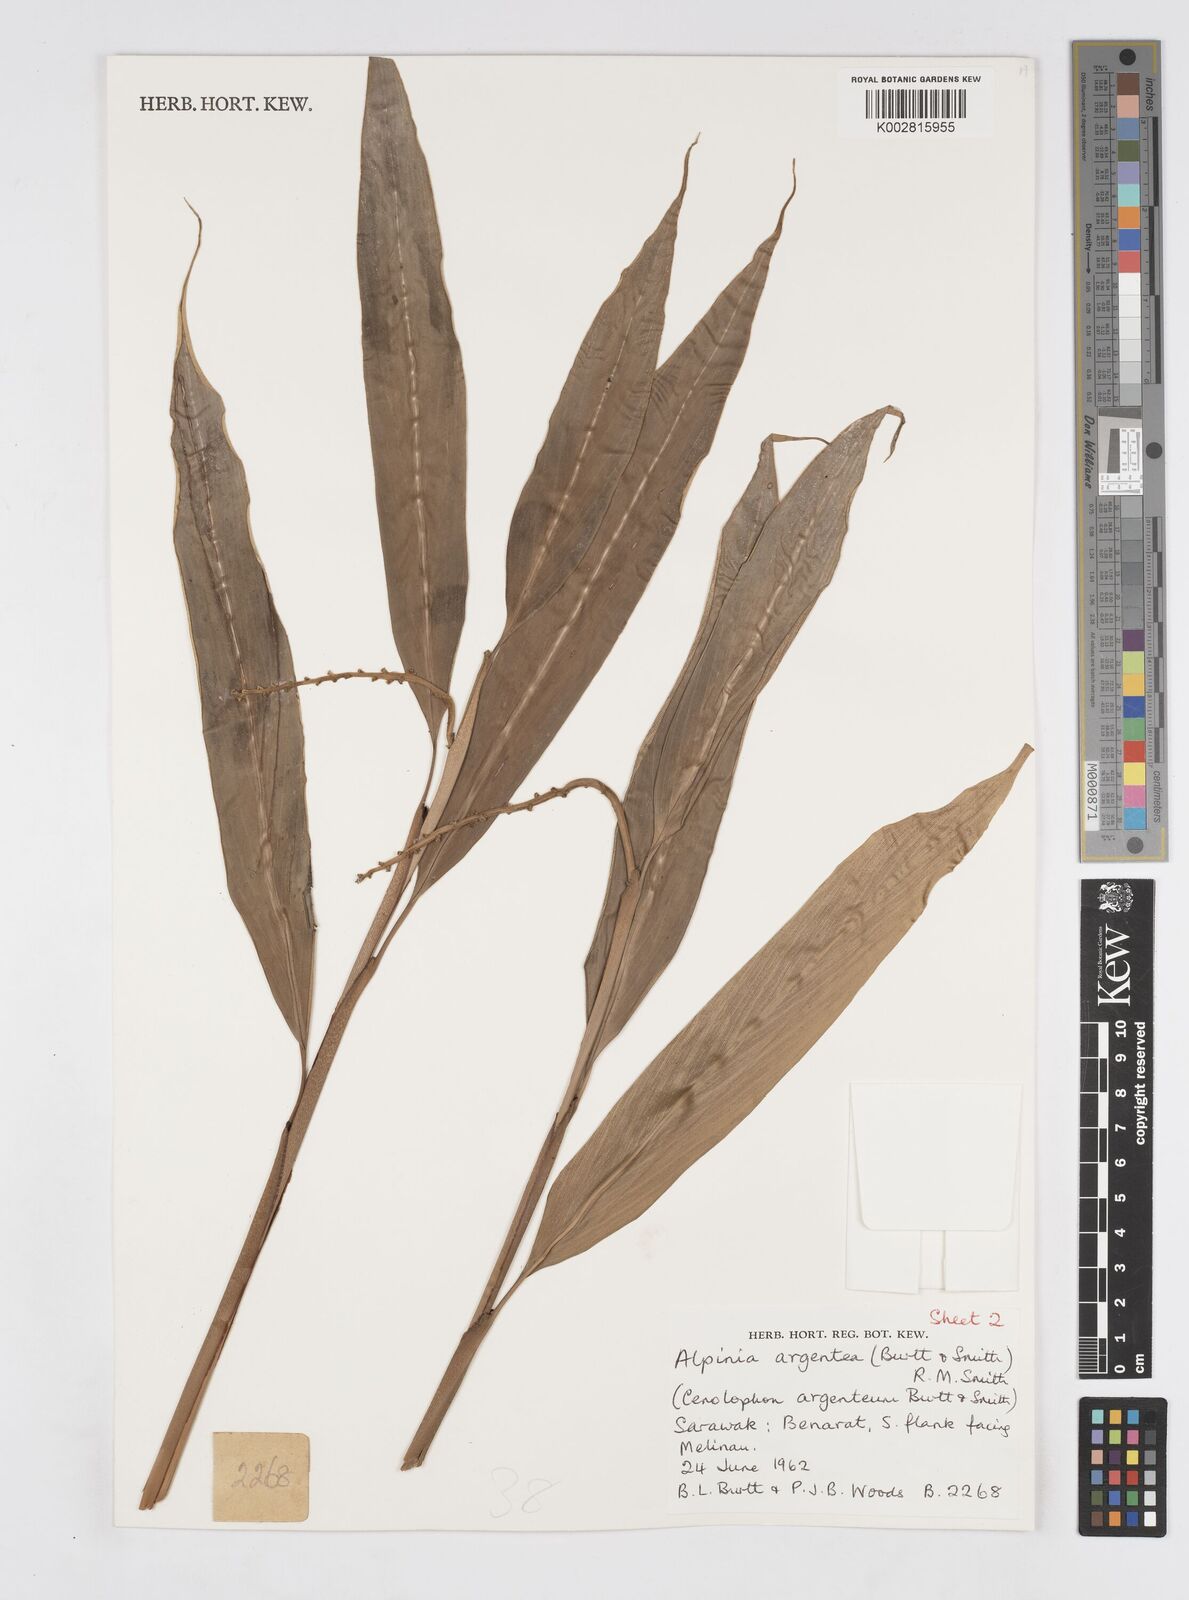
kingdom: Plantae
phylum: Tracheophyta
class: Liliopsida
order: Zingiberales
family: Zingiberaceae
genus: Alpinia
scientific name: Alpinia argentea
